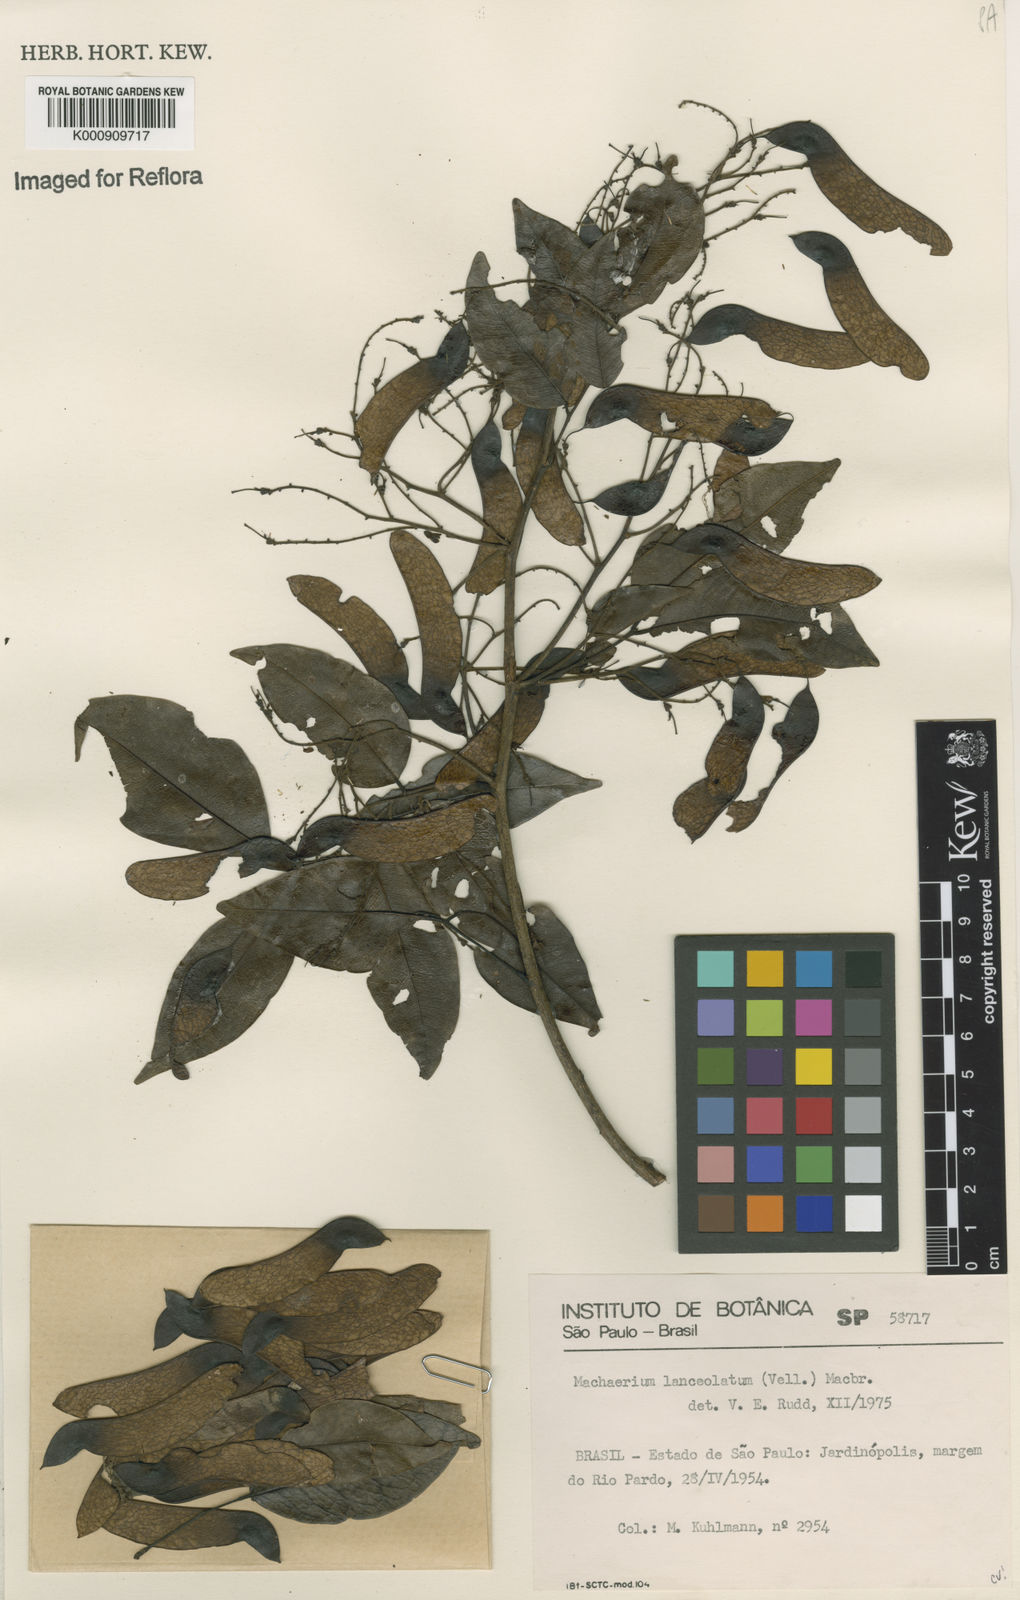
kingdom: Plantae
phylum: Tracheophyta
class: Magnoliopsida
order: Fabales
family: Fabaceae
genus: Machaerium
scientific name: Machaerium lanceolatum
